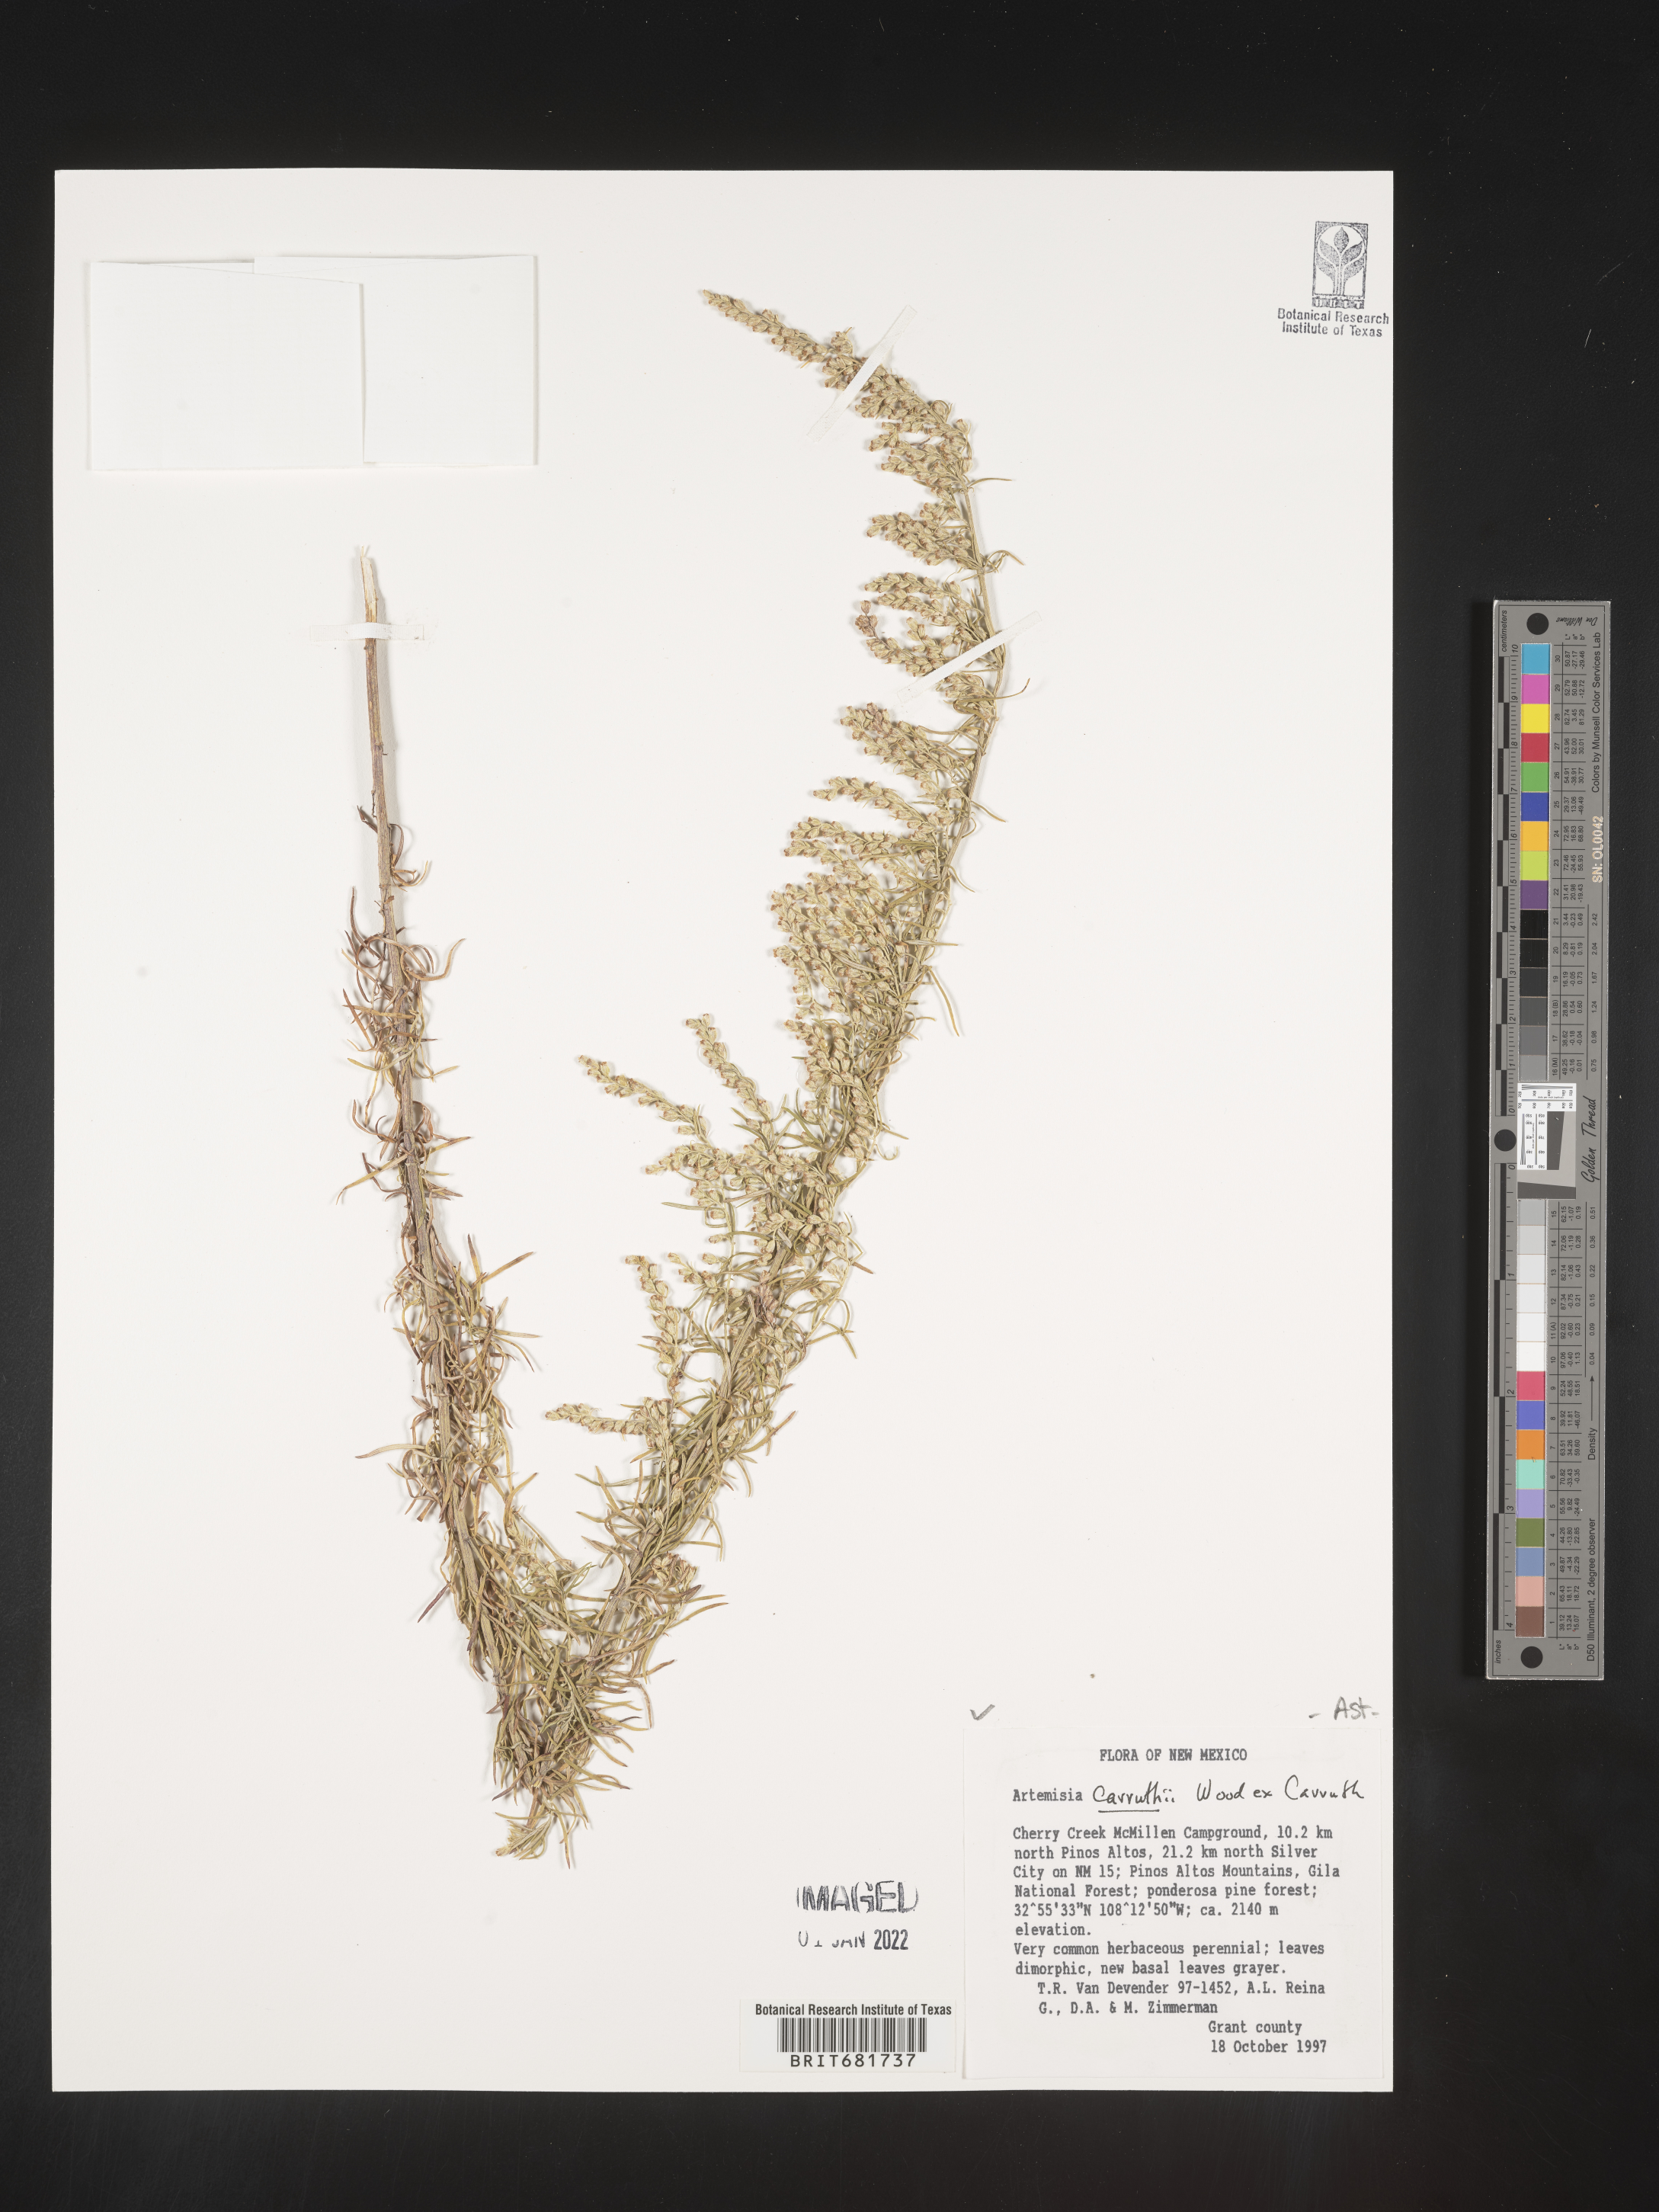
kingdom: Plantae
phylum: Tracheophyta
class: Magnoliopsida
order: Asterales
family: Asteraceae
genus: Artemisia
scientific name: Artemisia carruthii
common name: Carruth wormwood
